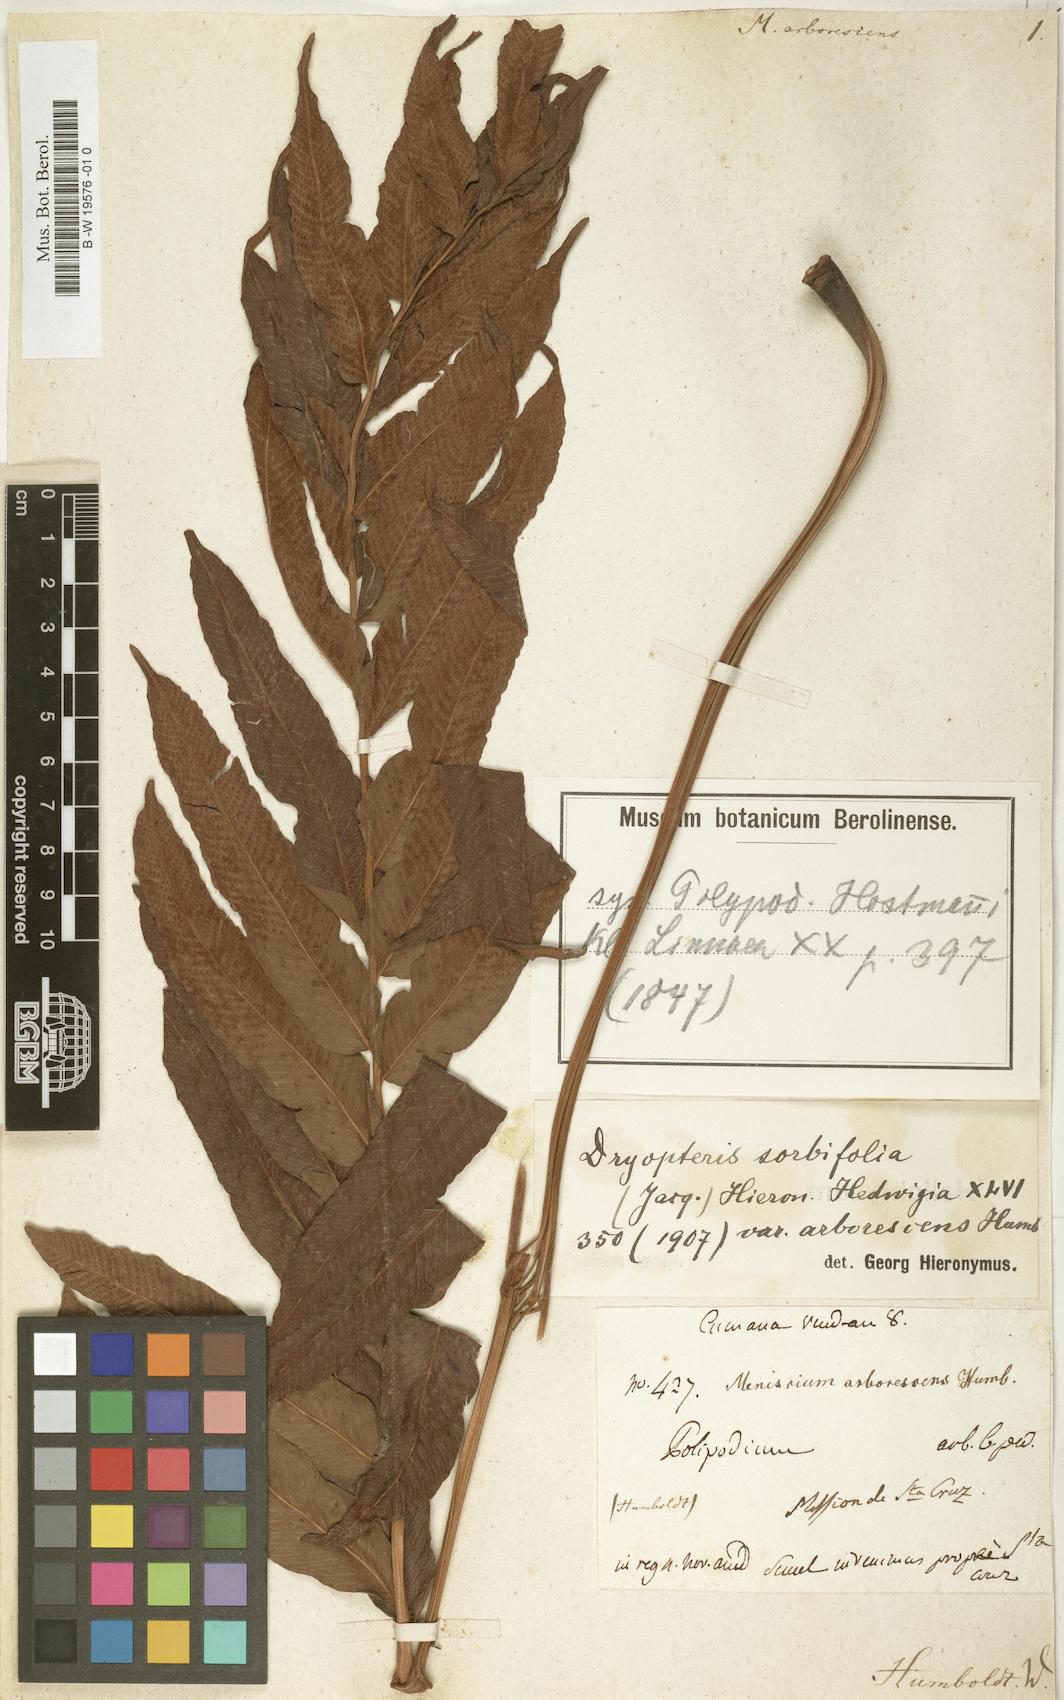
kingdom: Plantae
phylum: Tracheophyta
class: Polypodiopsida
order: Polypodiales
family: Thelypteridaceae
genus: Meniscium
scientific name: Meniscium arborescens
